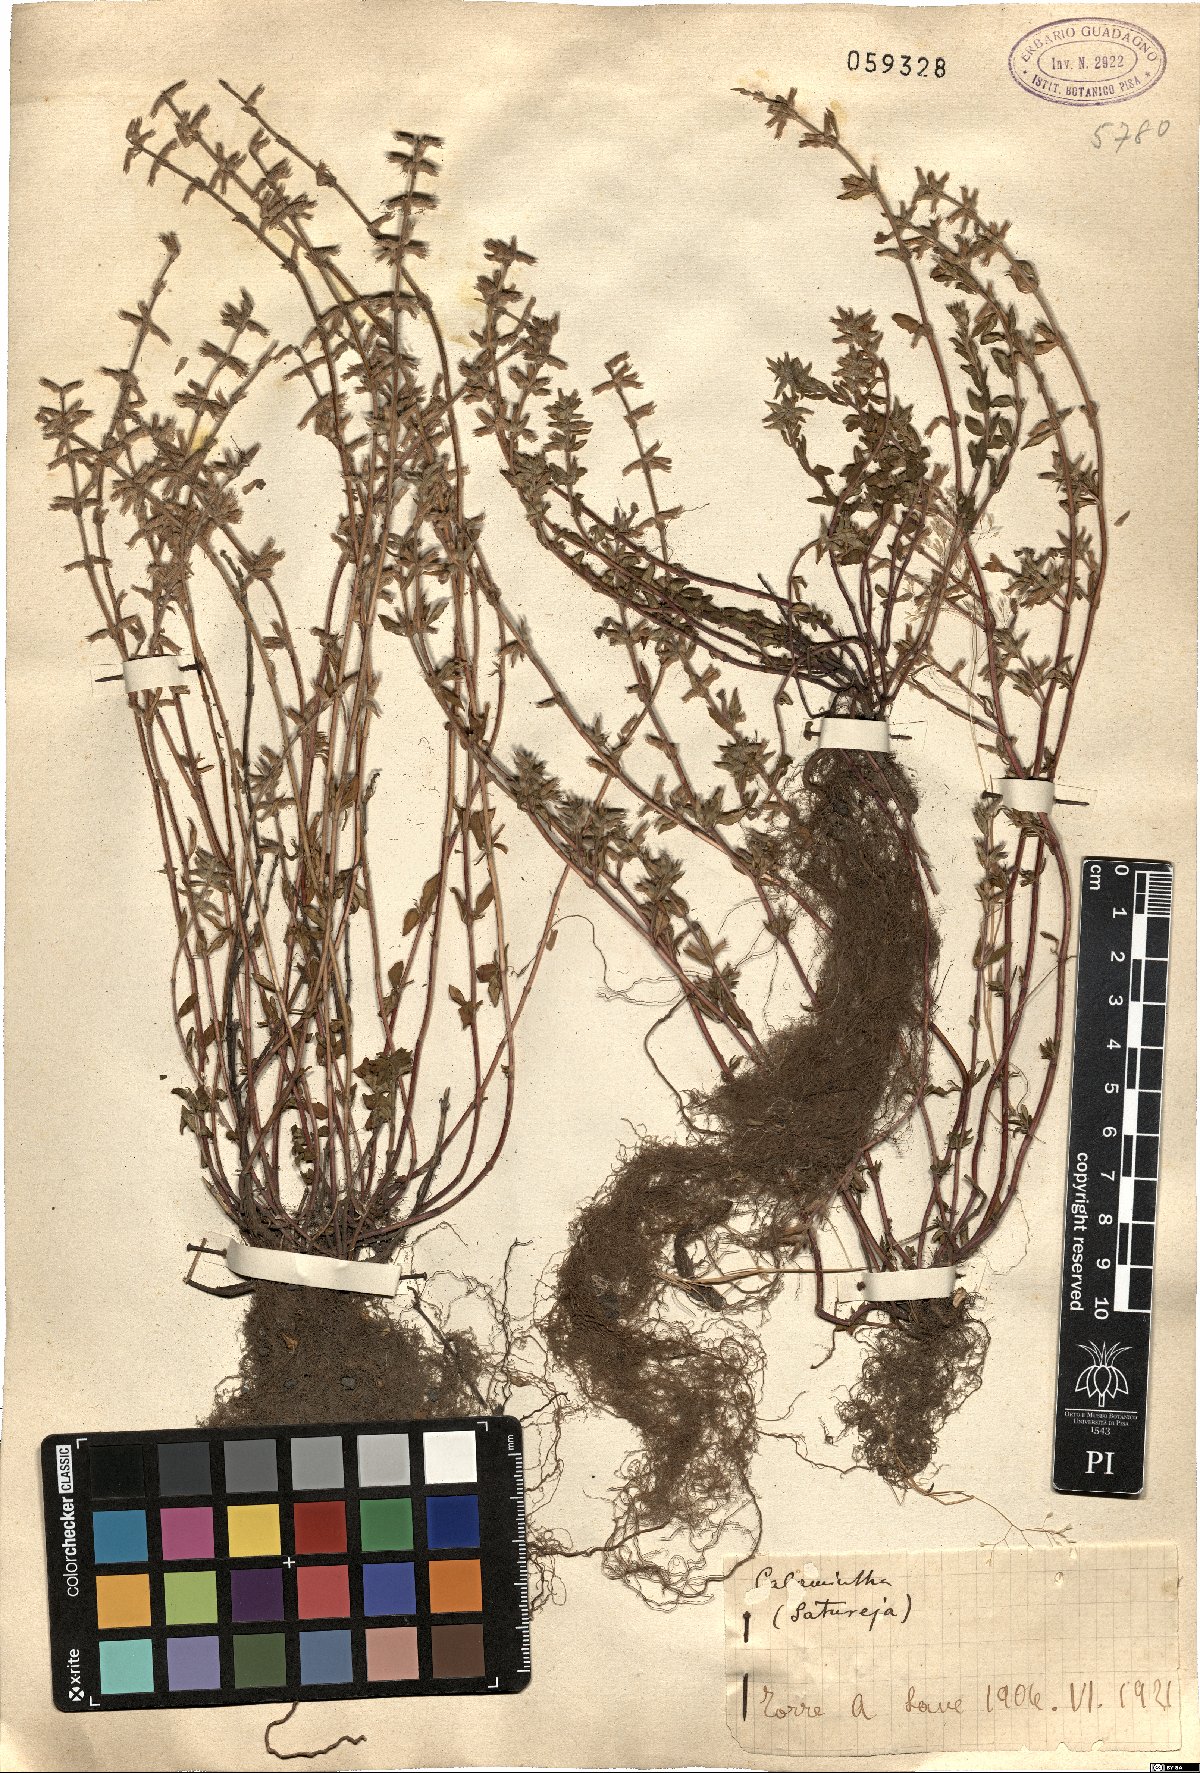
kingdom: Plantae
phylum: Tracheophyta
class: Magnoliopsida
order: Lamiales
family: Lamiaceae
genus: Calamintha
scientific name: Calamintha
